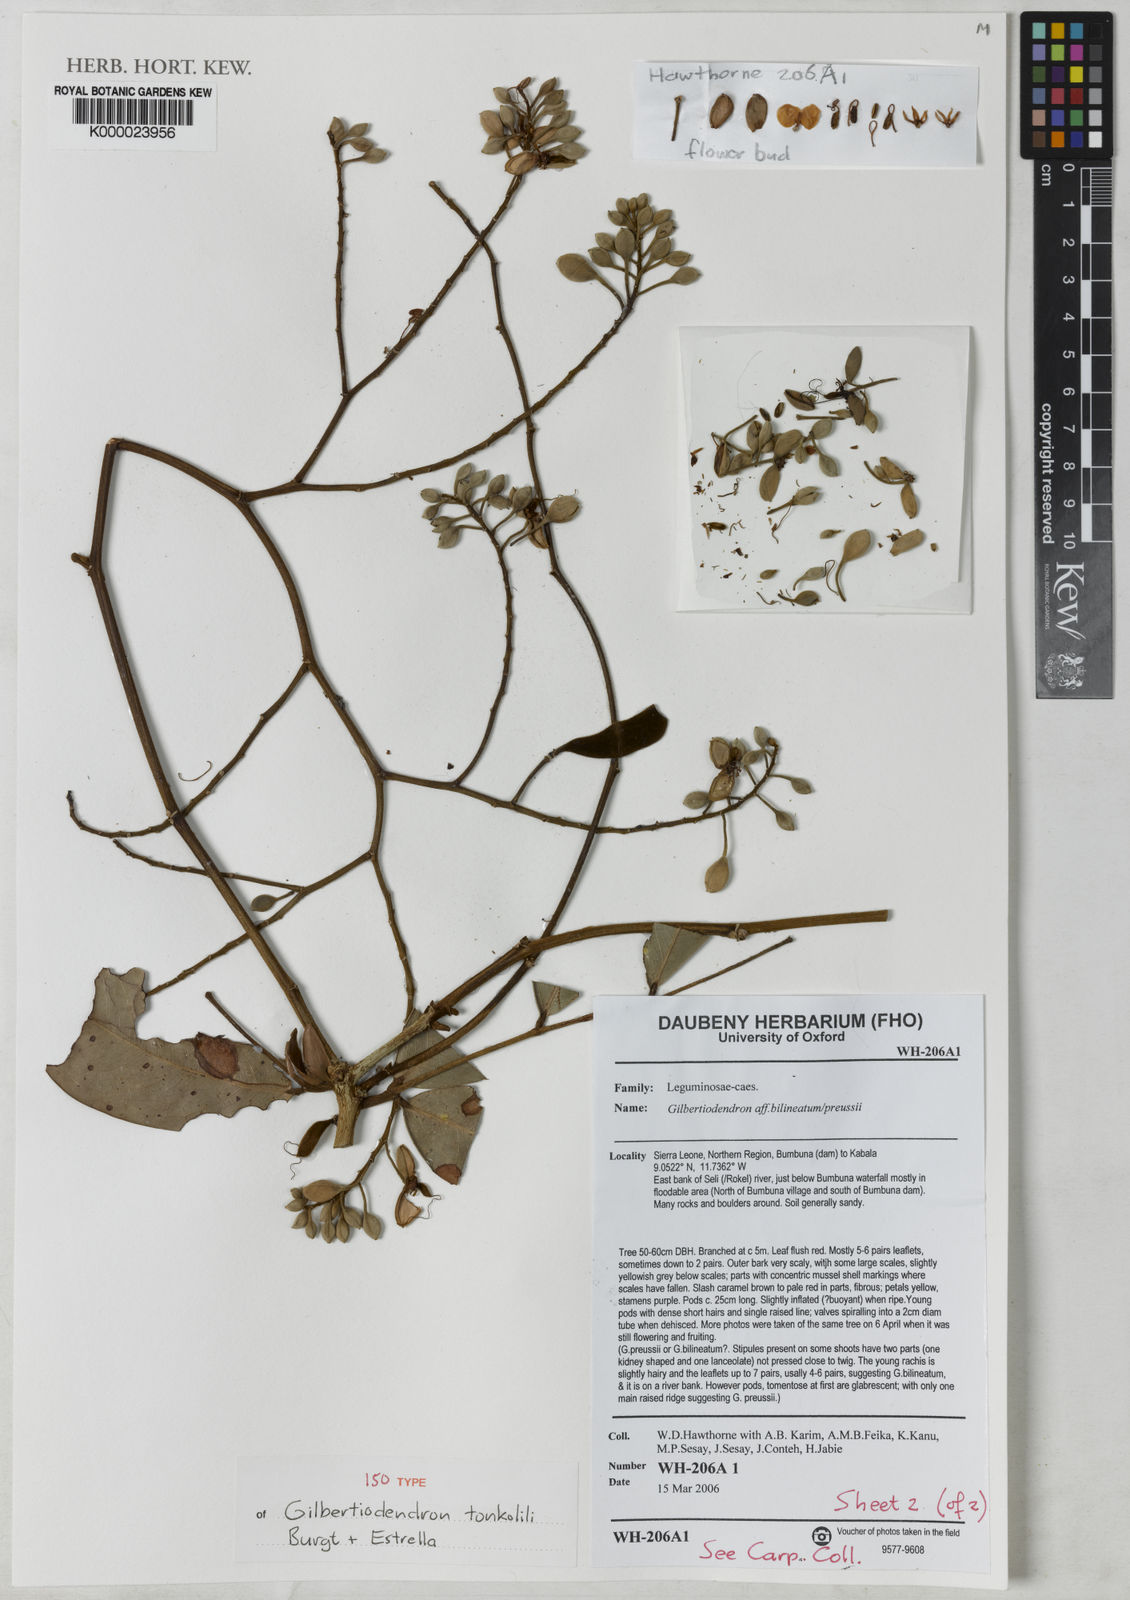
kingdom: Plantae
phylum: Tracheophyta
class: Magnoliopsida
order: Fabales
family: Fabaceae
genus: Gilbertiodendron
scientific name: Gilbertiodendron tonkolili
